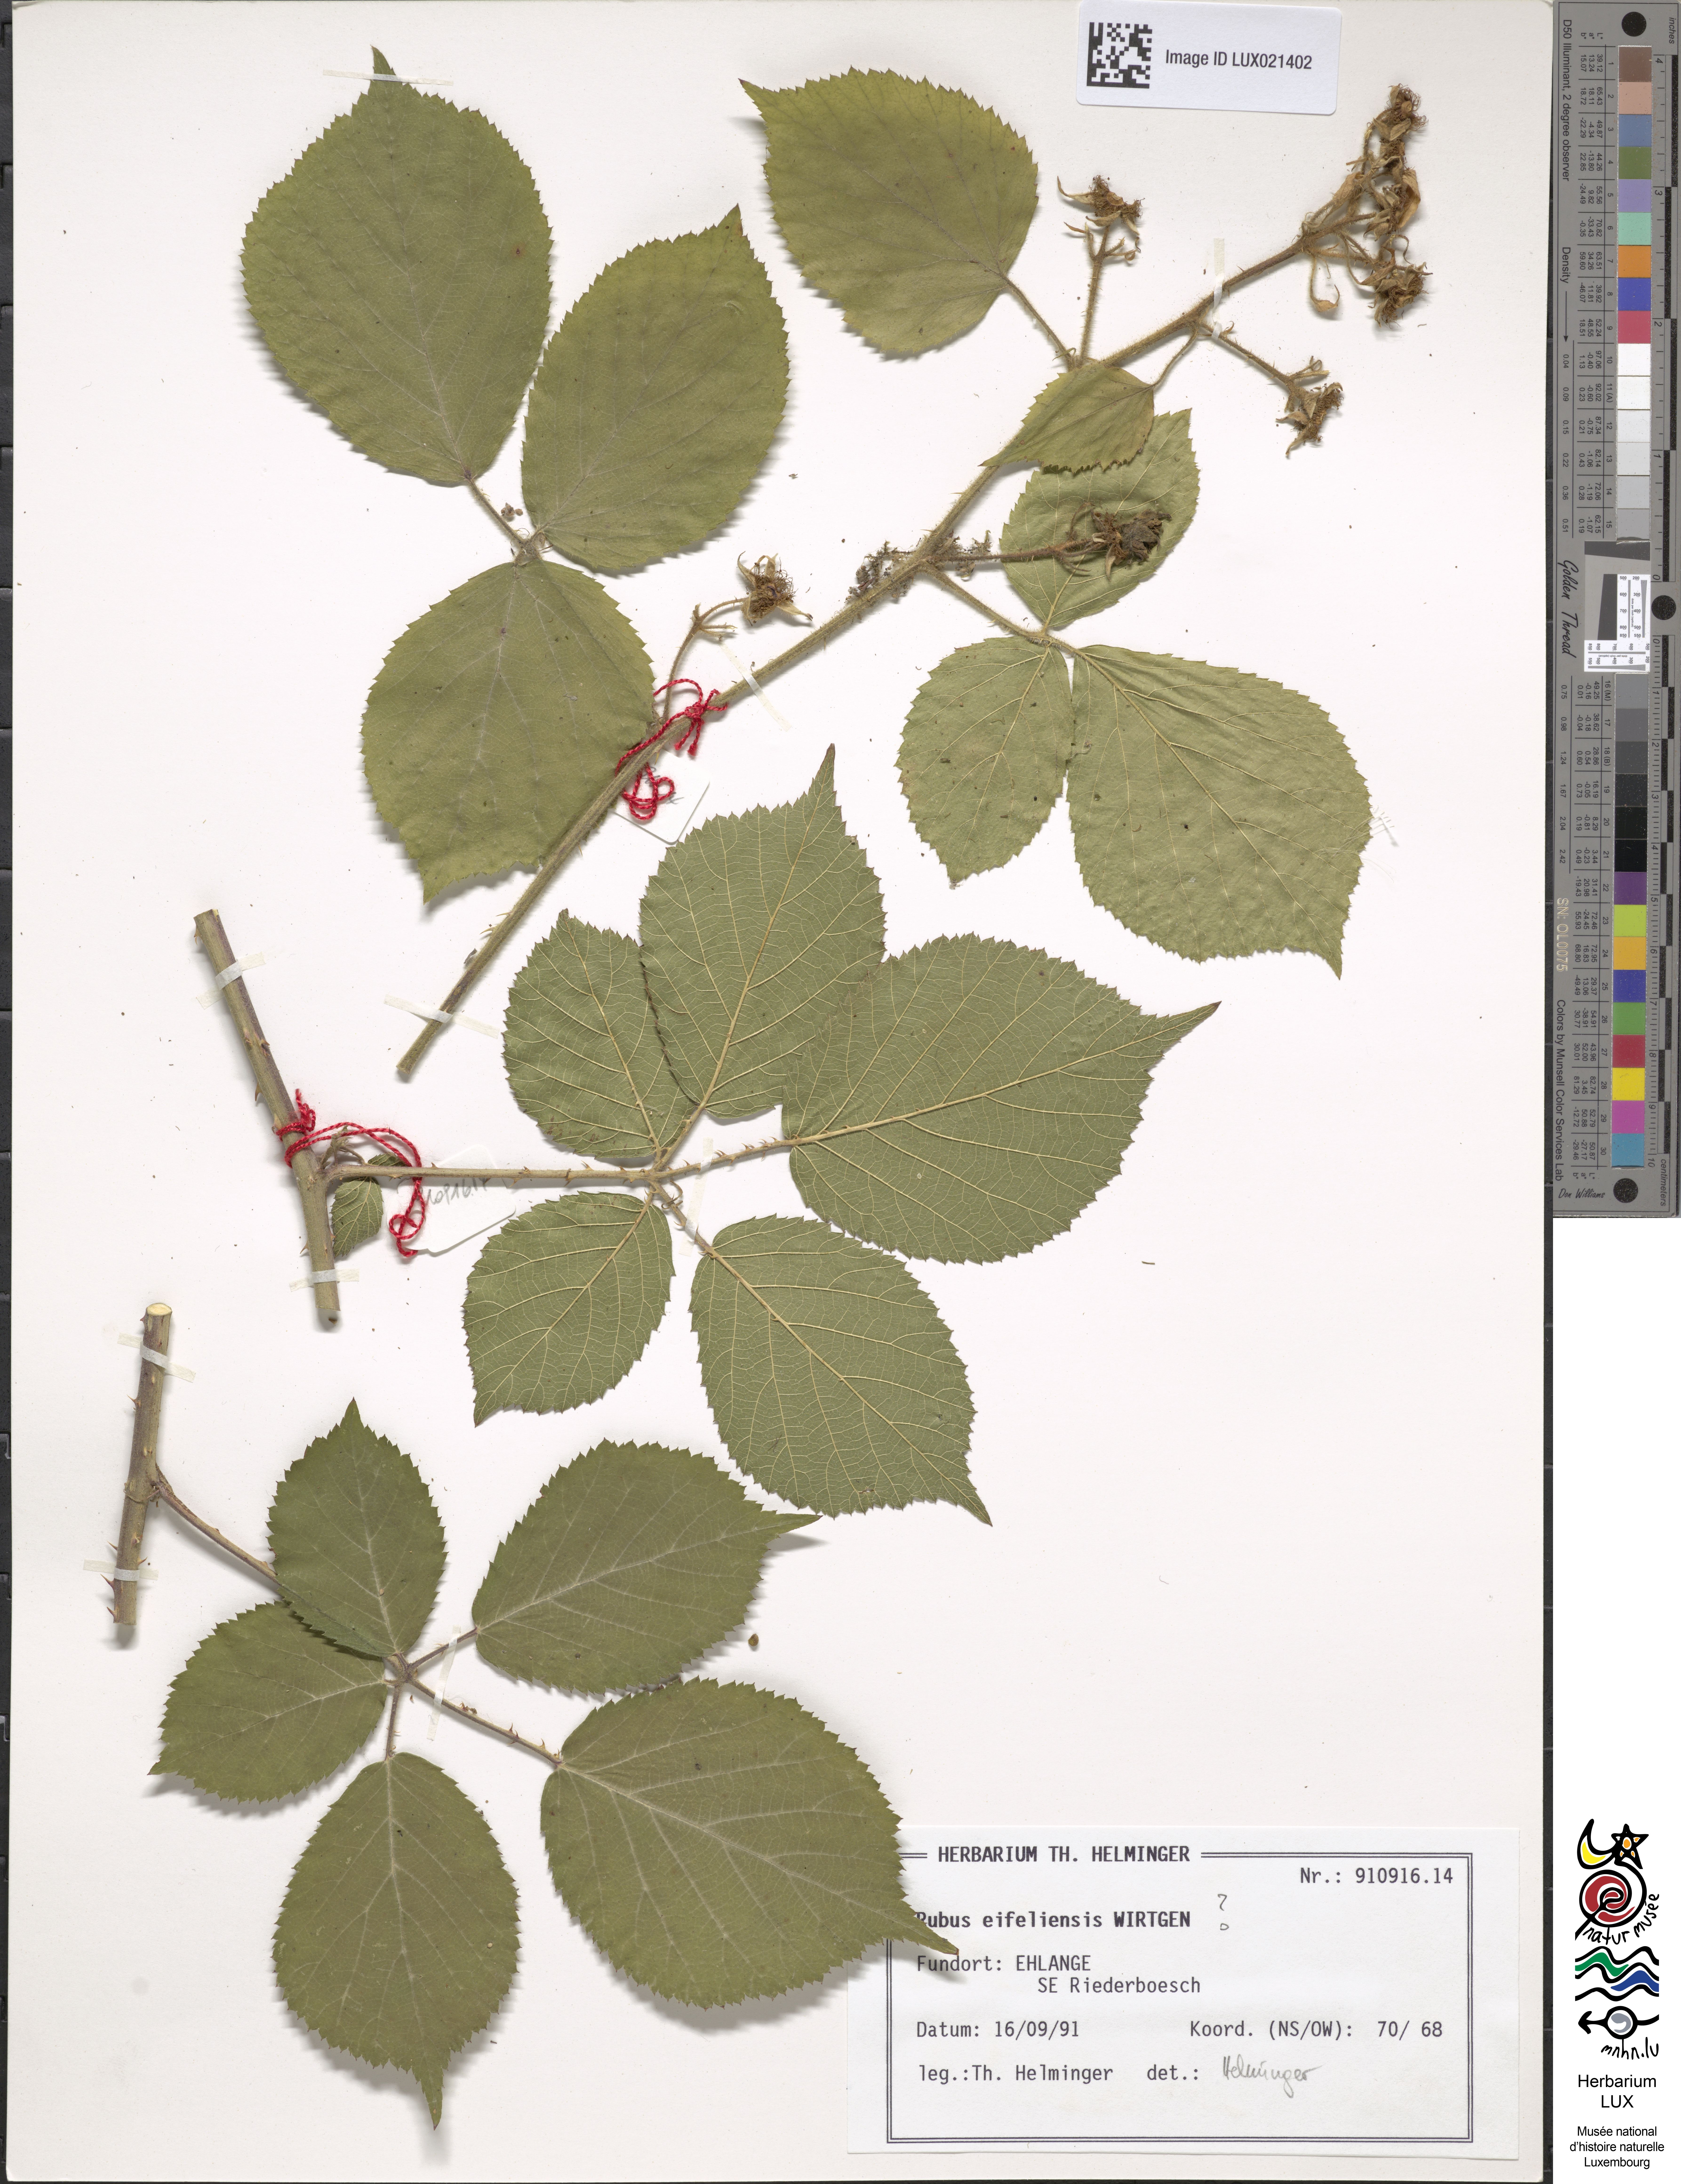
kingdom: Plantae
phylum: Tracheophyta
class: Magnoliopsida
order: Rosales
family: Rosaceae
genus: Rubus
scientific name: Rubus eifeliensis
